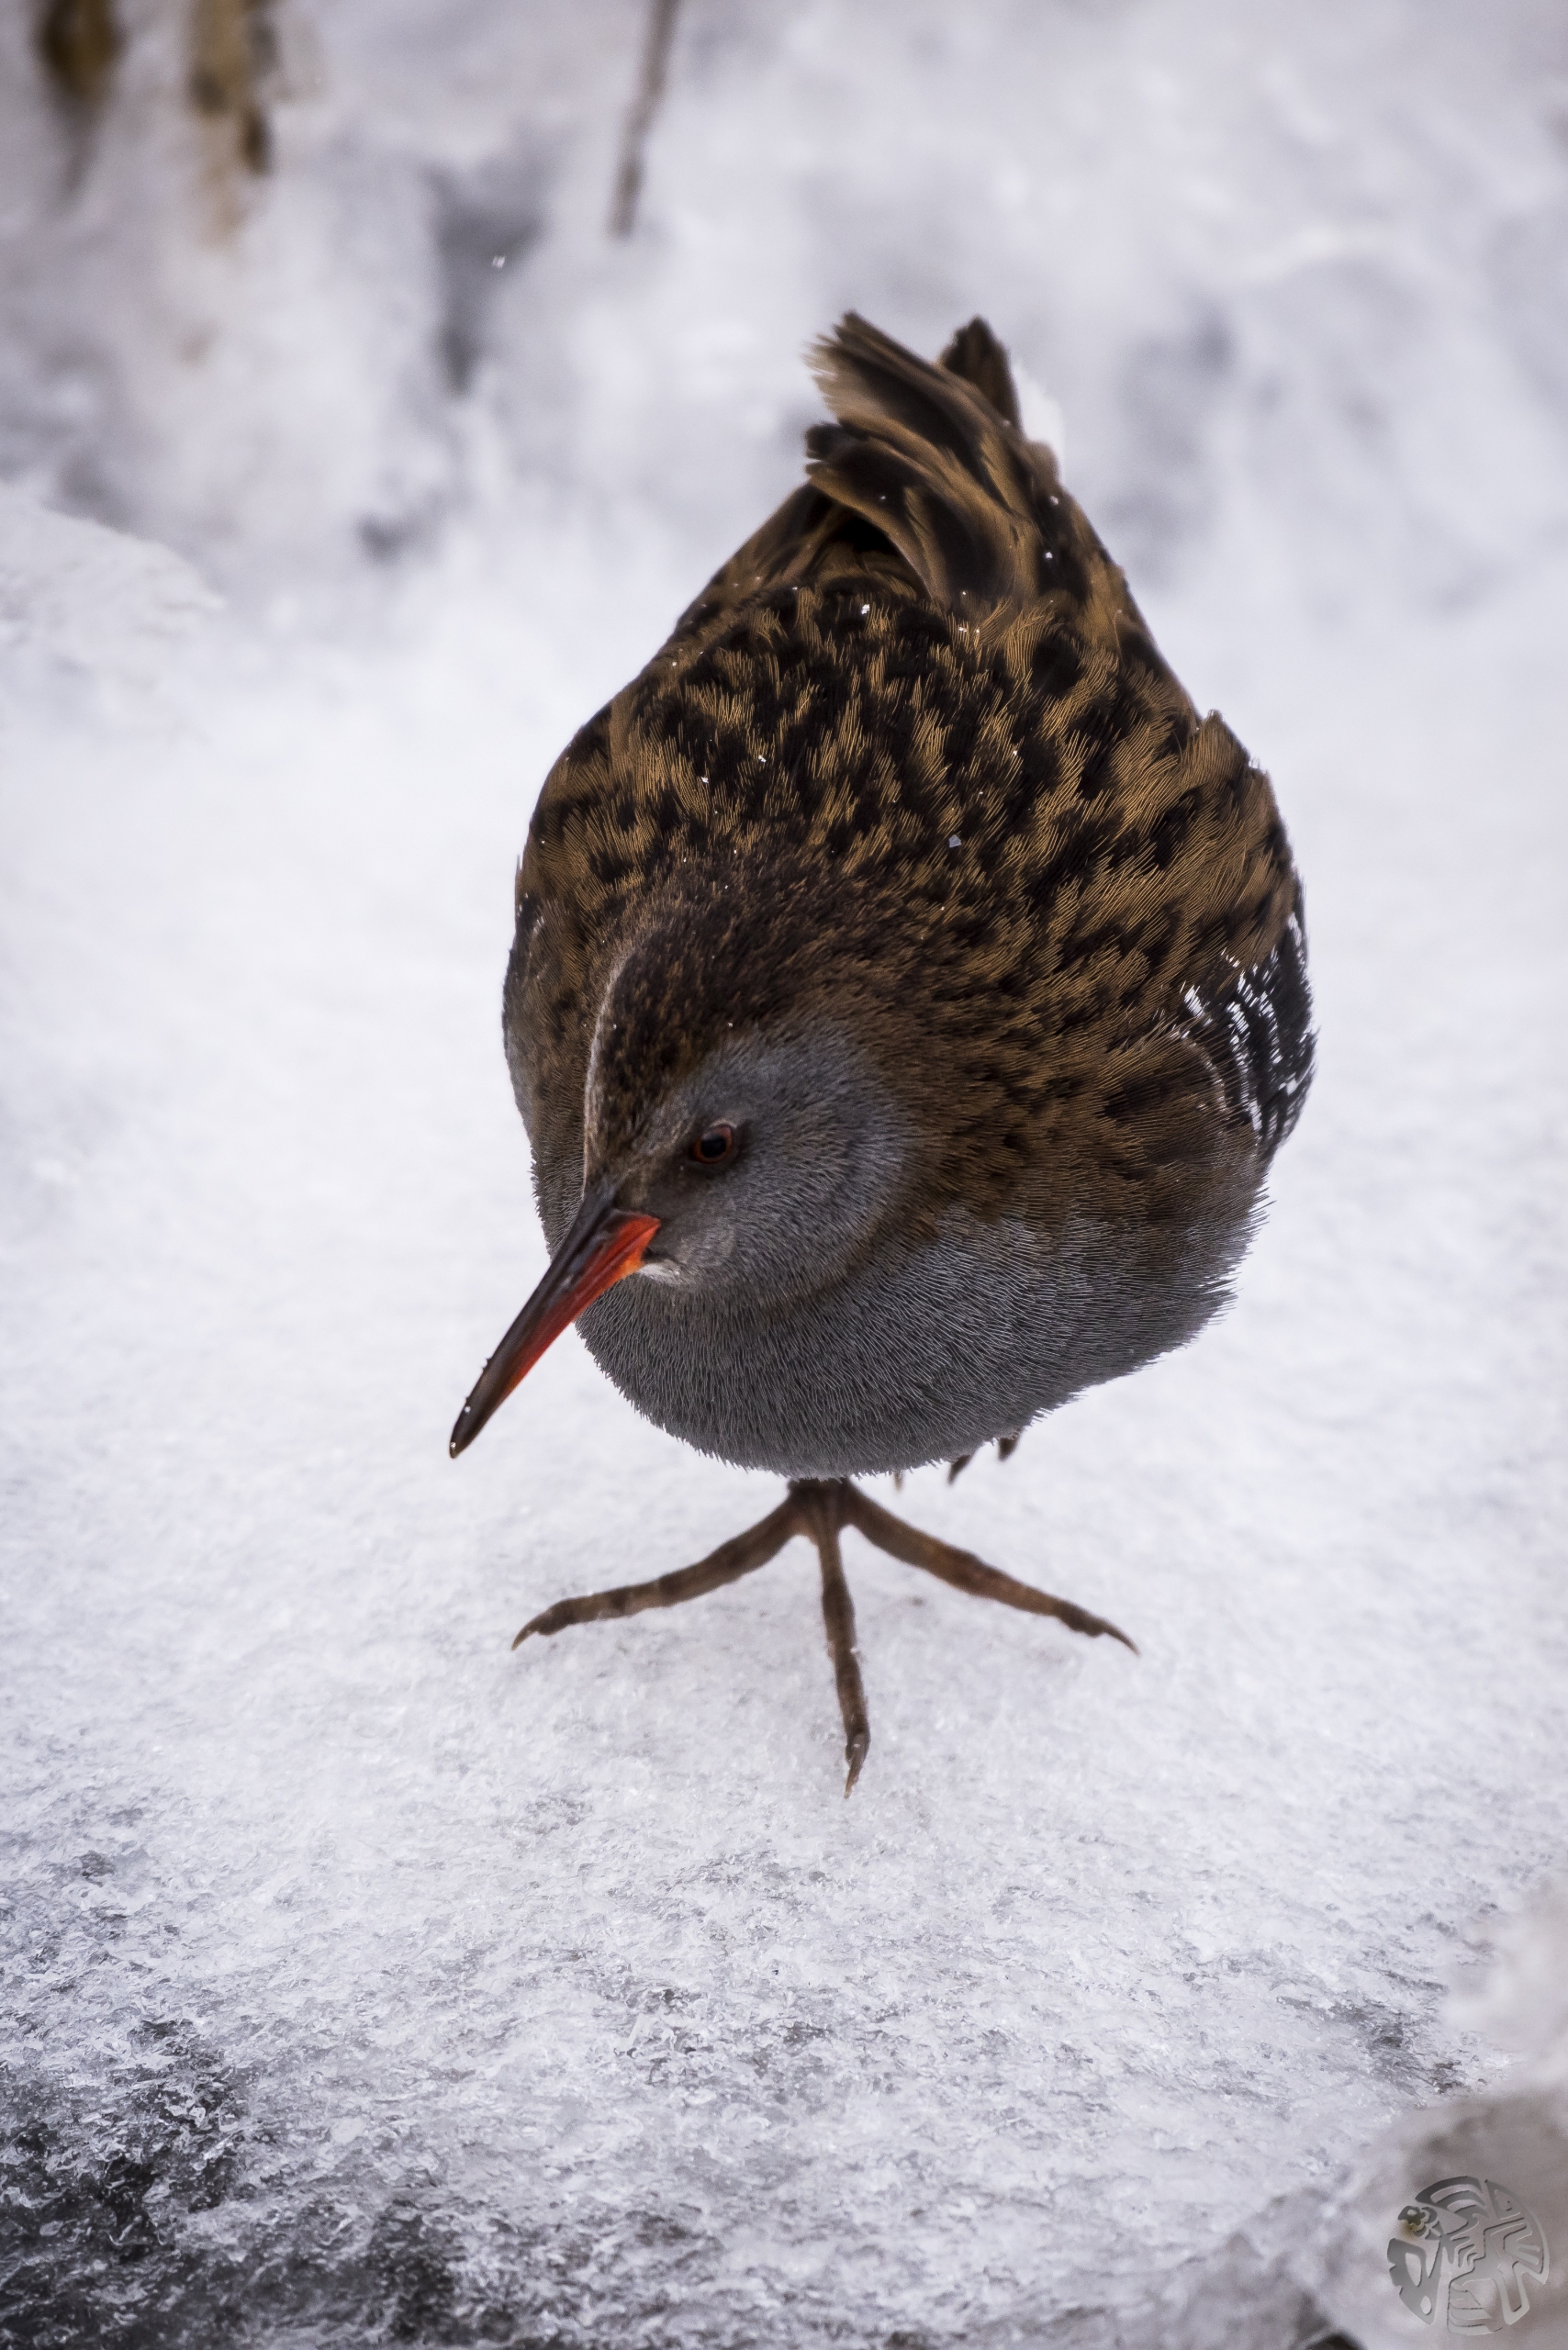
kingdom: Animalia
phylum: Chordata
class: Aves
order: Gruiformes
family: Rallidae
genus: Rallus
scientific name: Rallus aquaticus
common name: Vandrikse
